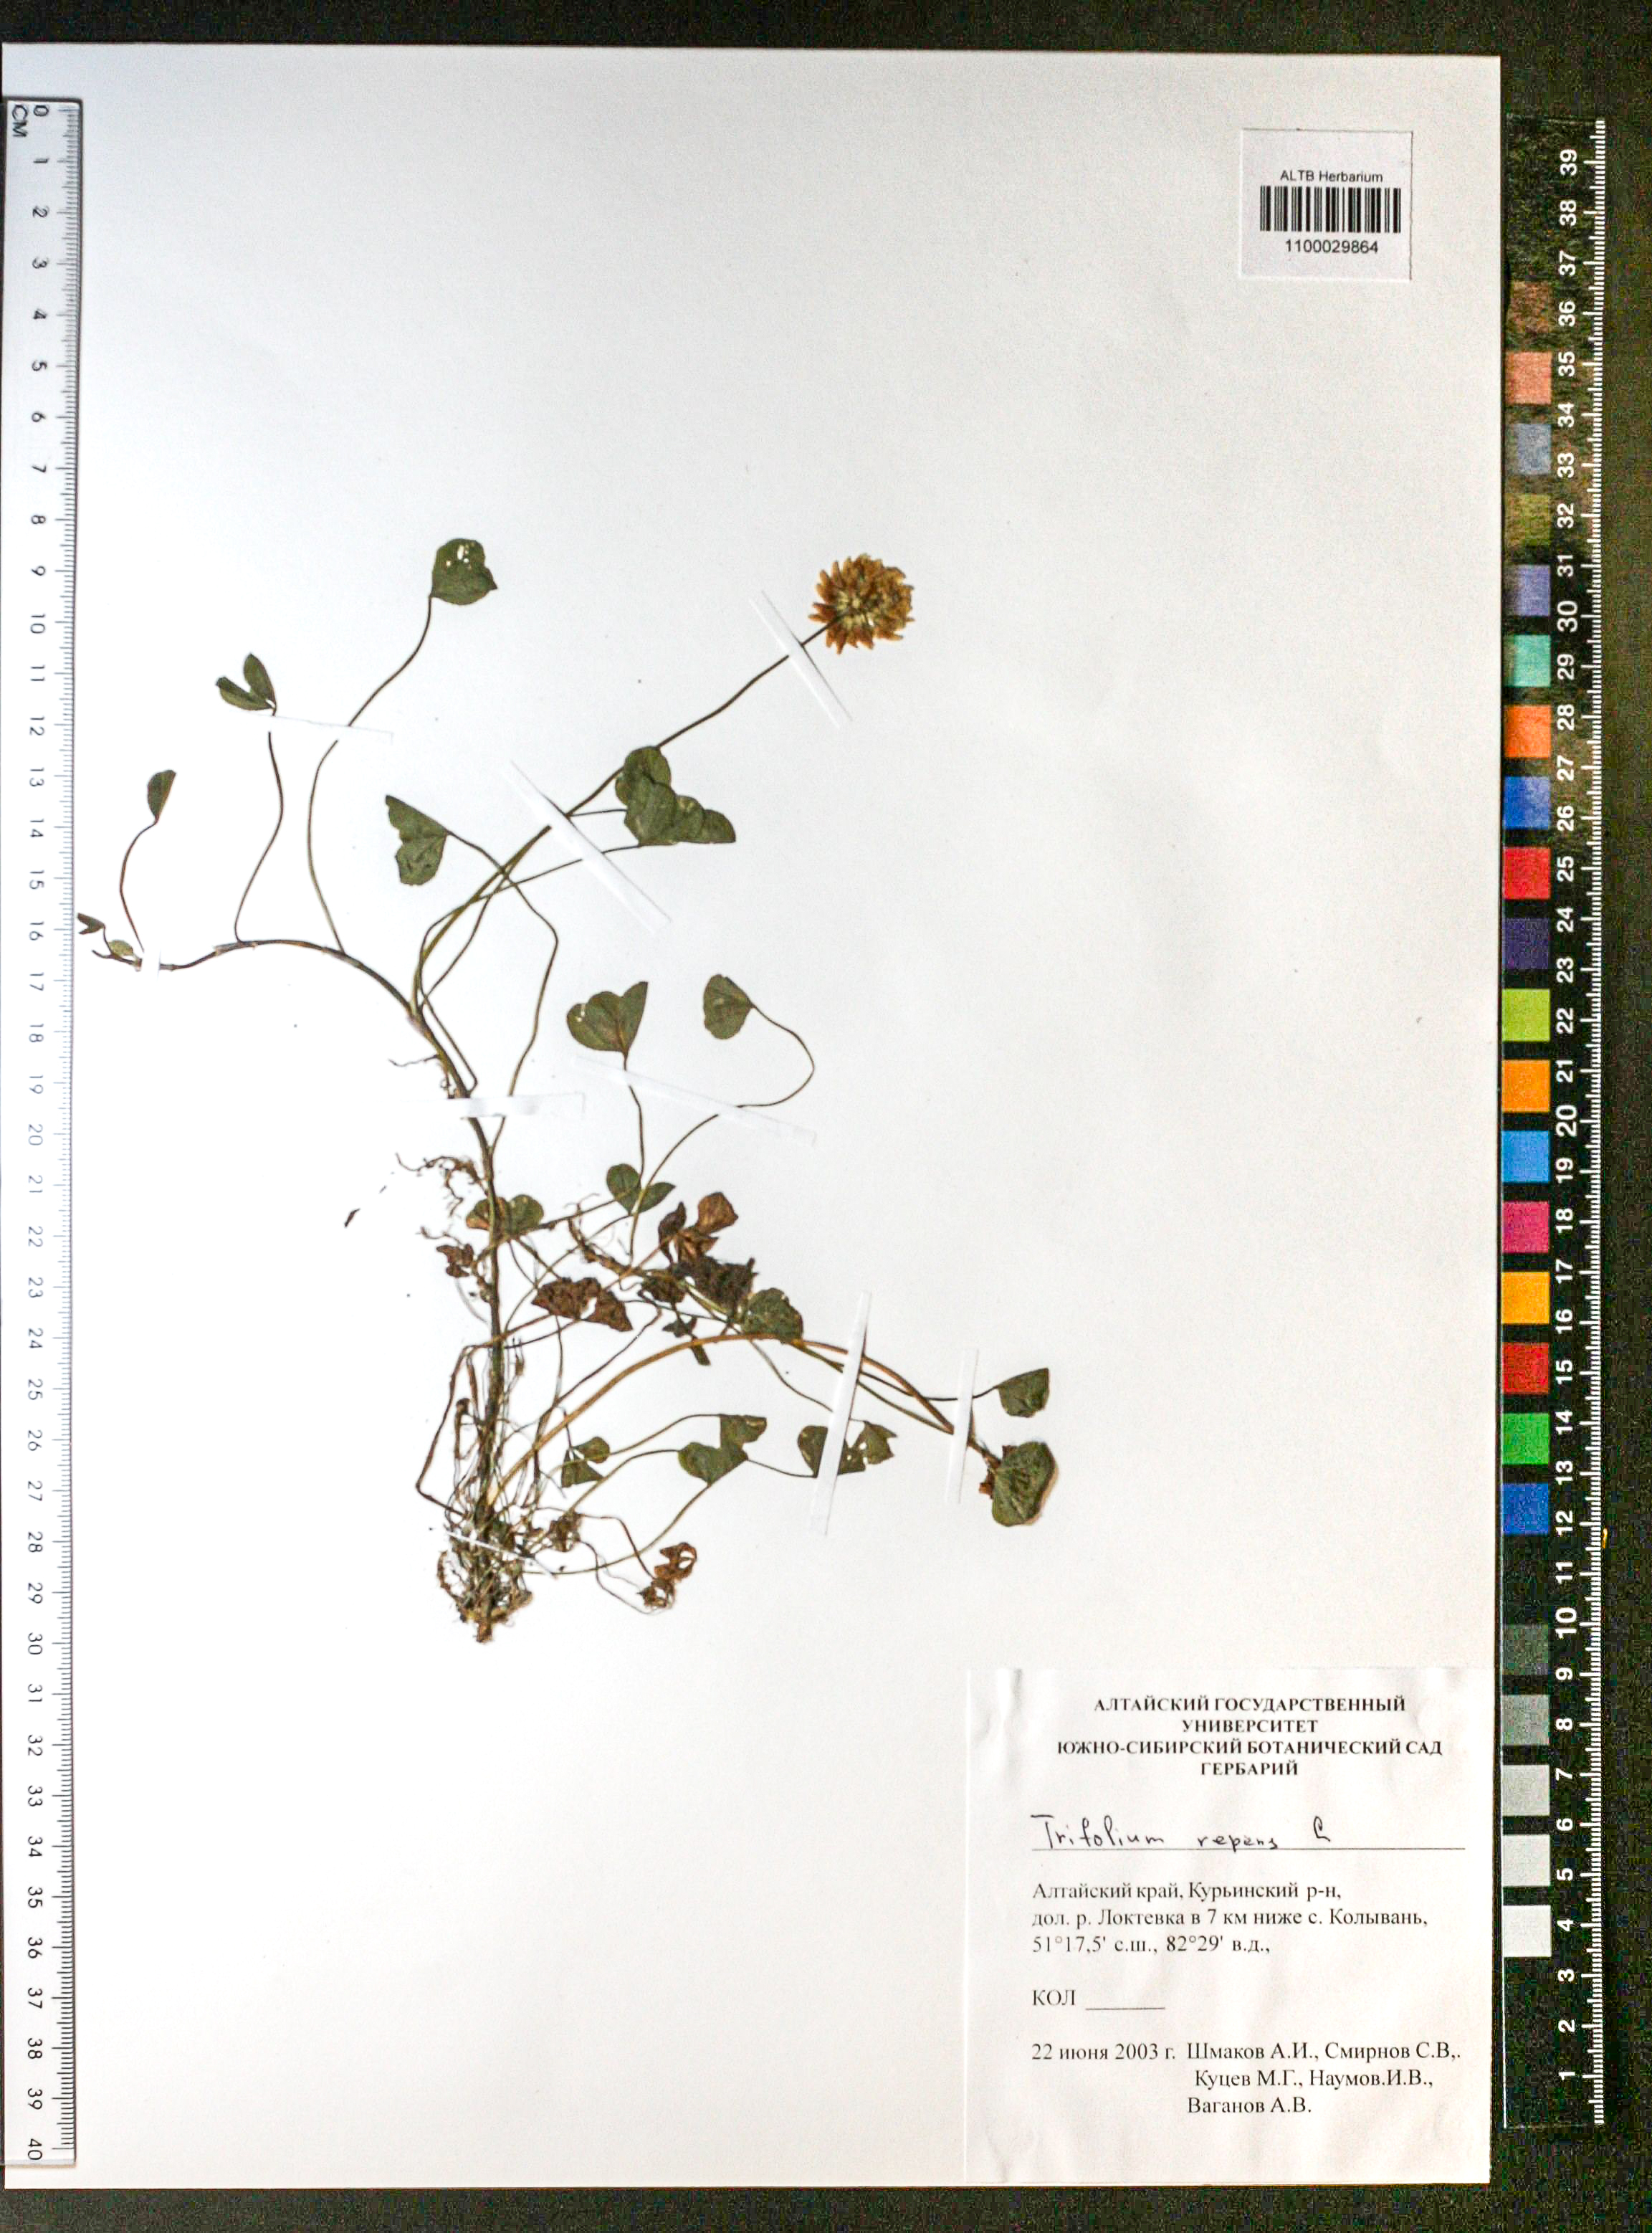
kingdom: Plantae
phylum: Tracheophyta
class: Magnoliopsida
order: Fabales
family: Fabaceae
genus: Trifolium
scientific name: Trifolium repens
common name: White clover
